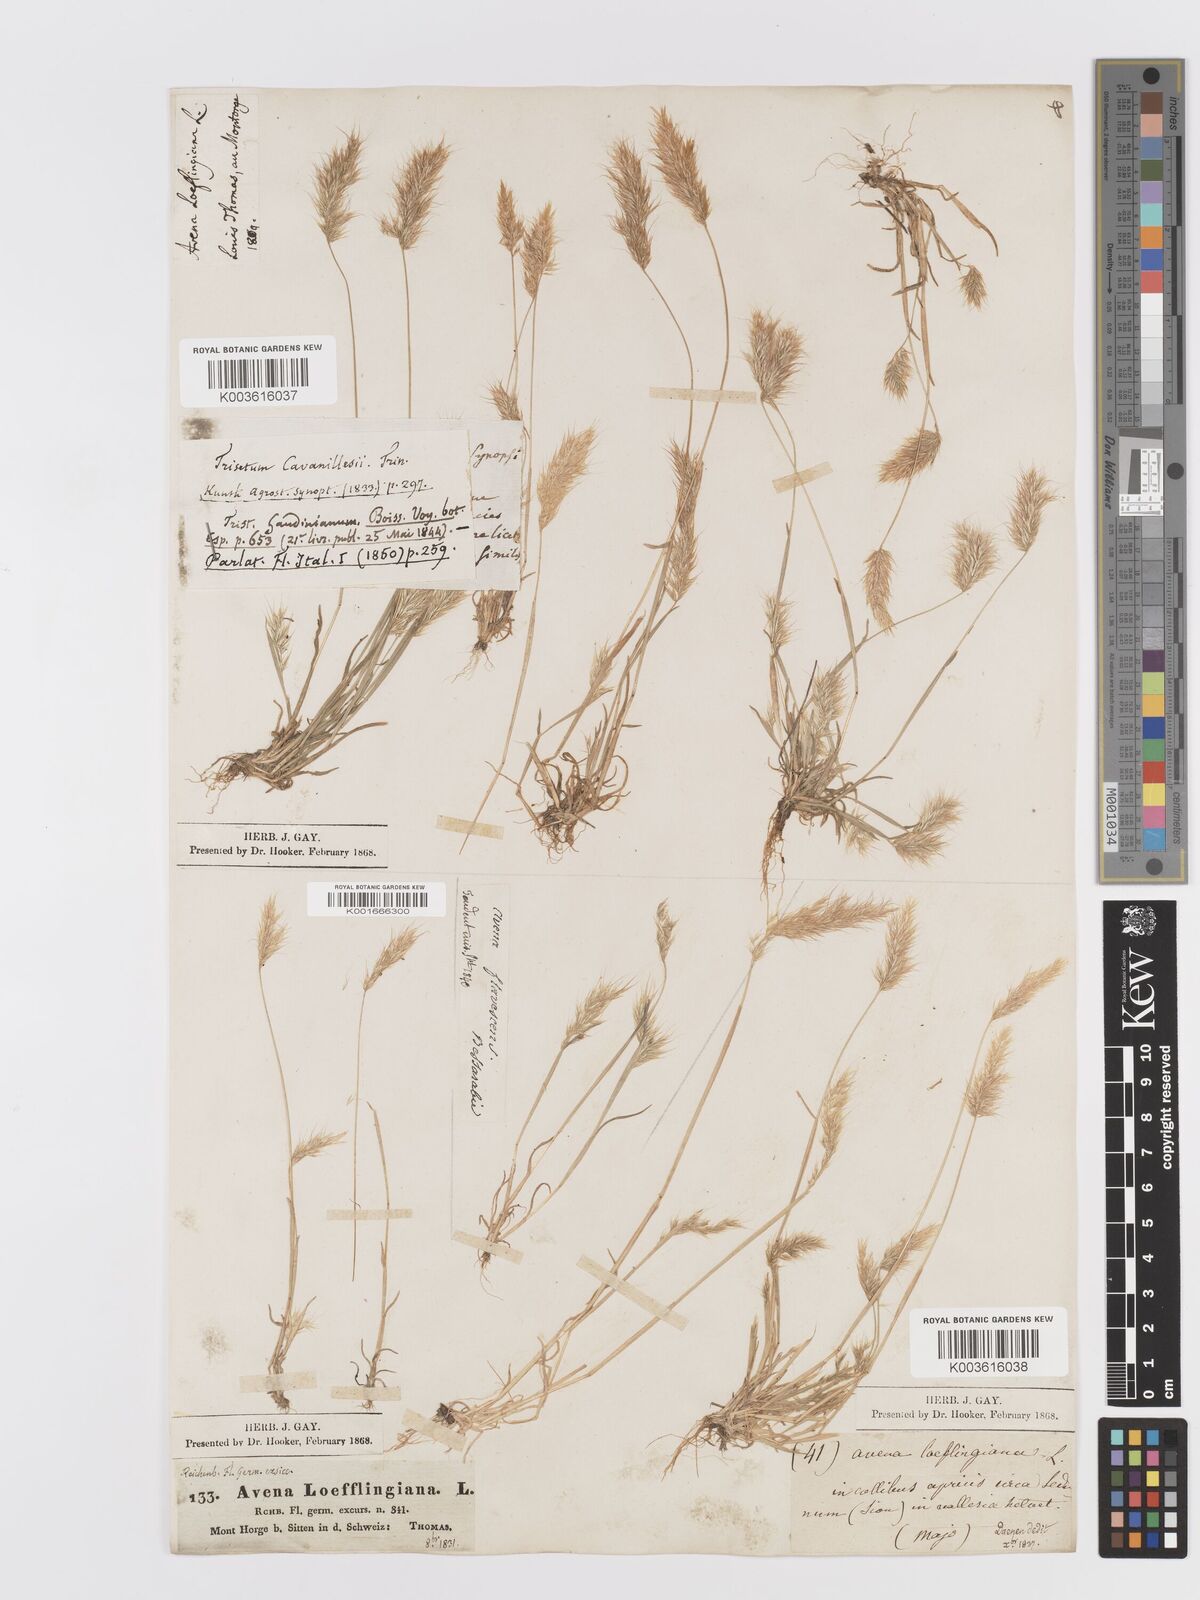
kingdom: Plantae
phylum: Tracheophyta
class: Liliopsida
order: Poales
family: Poaceae
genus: Trisetaria
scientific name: Trisetaria loeflingiana
